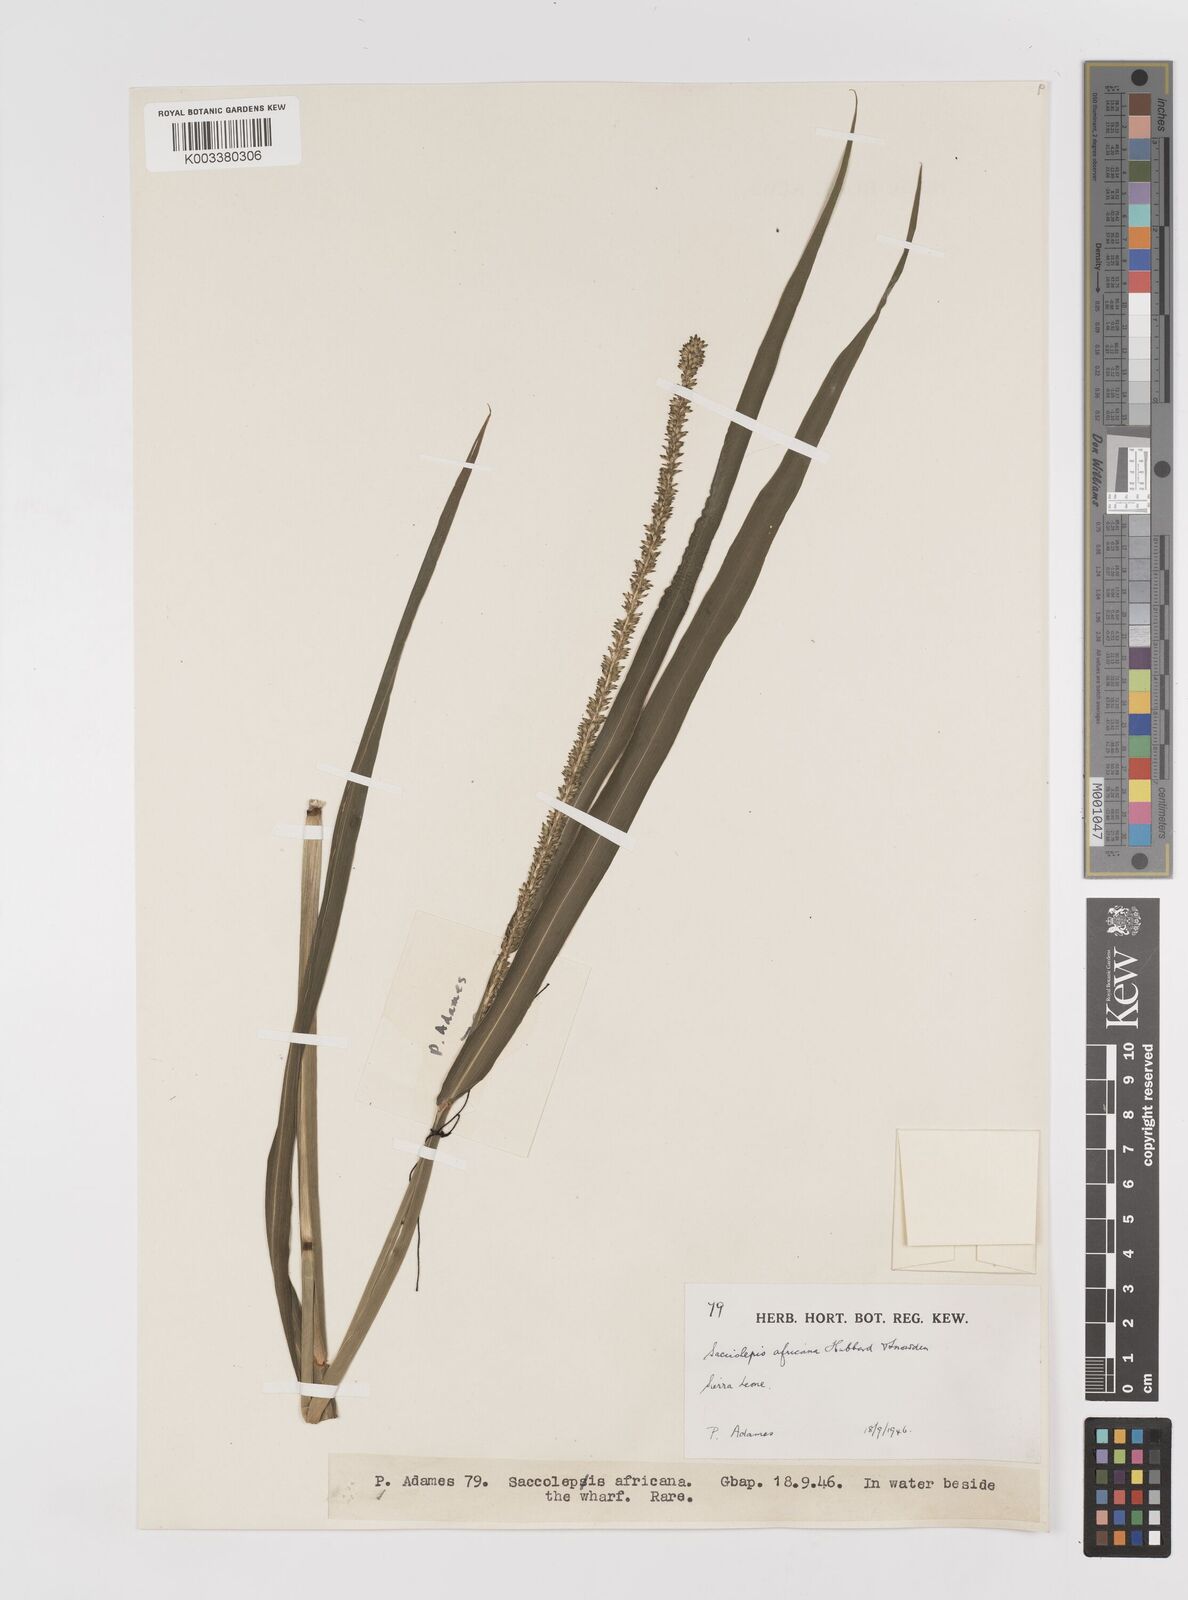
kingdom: Plantae
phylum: Tracheophyta
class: Liliopsida
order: Poales
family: Poaceae
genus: Sacciolepis
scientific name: Sacciolepis africana
